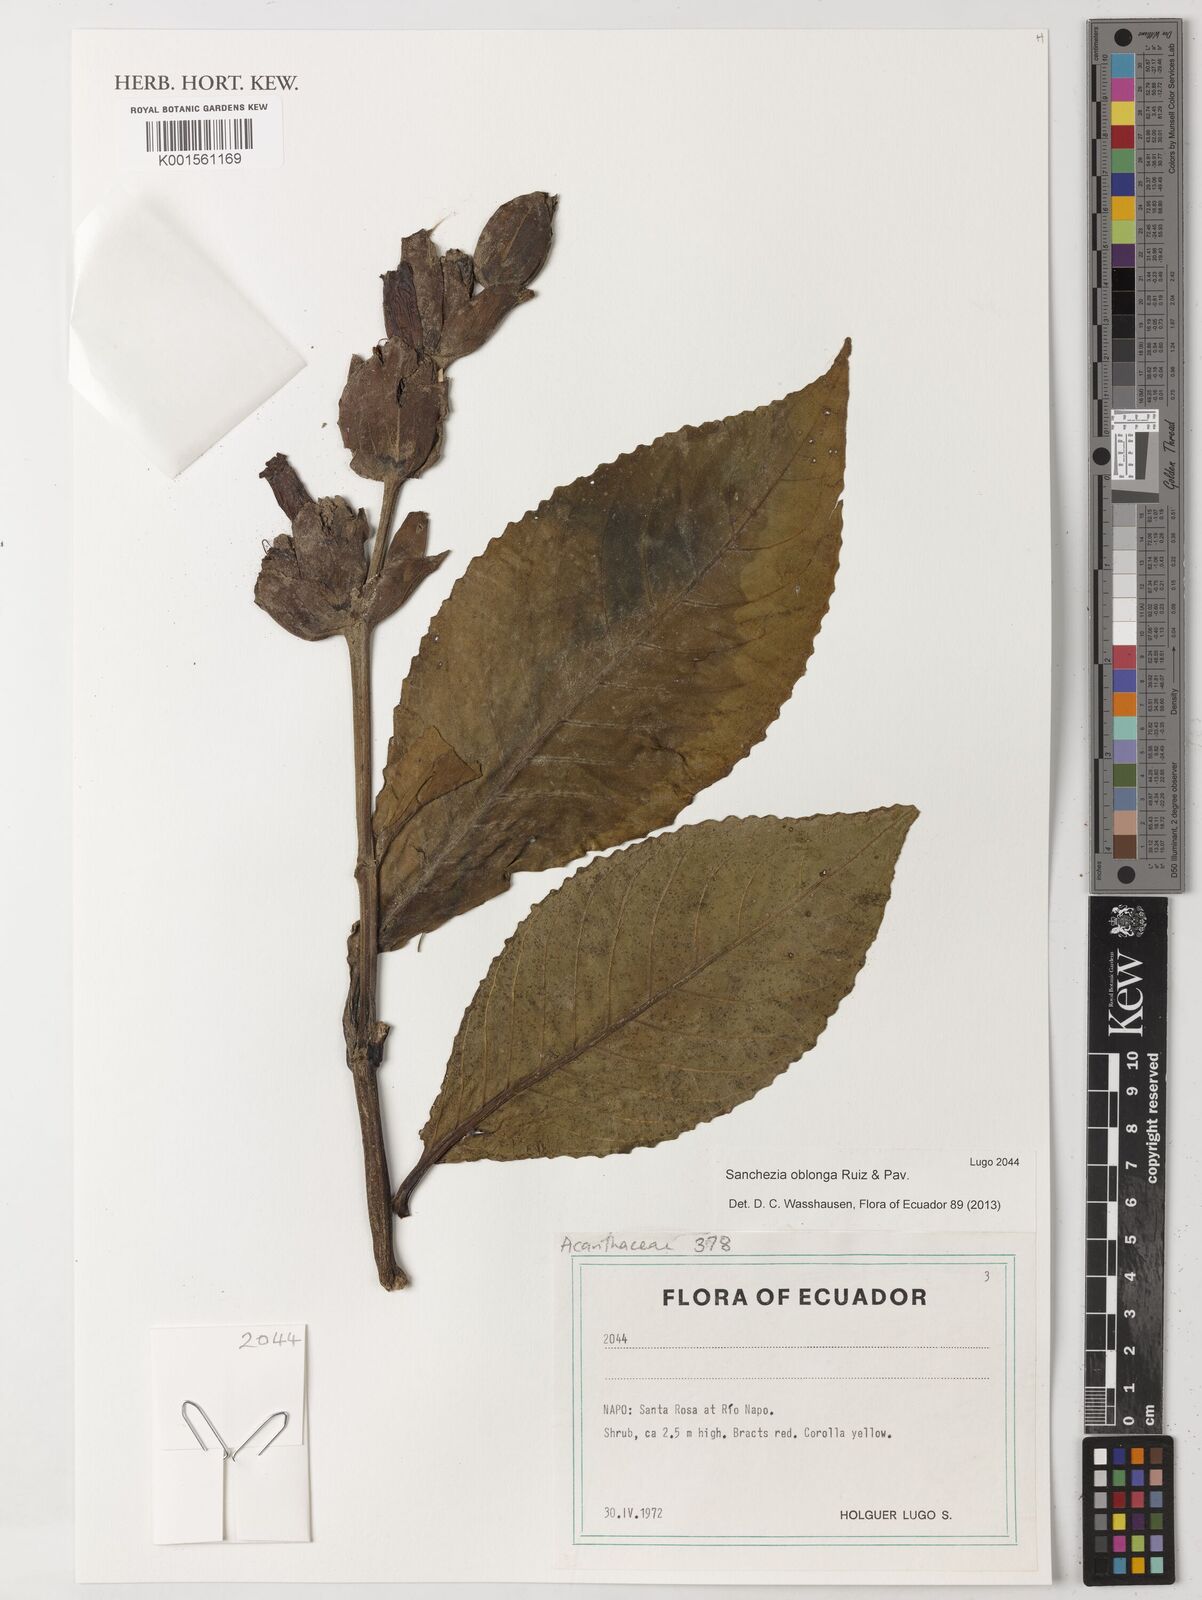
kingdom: Plantae
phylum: Tracheophyta
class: Magnoliopsida
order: Lamiales
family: Acanthaceae
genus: Sanchezia
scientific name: Sanchezia oblonga
